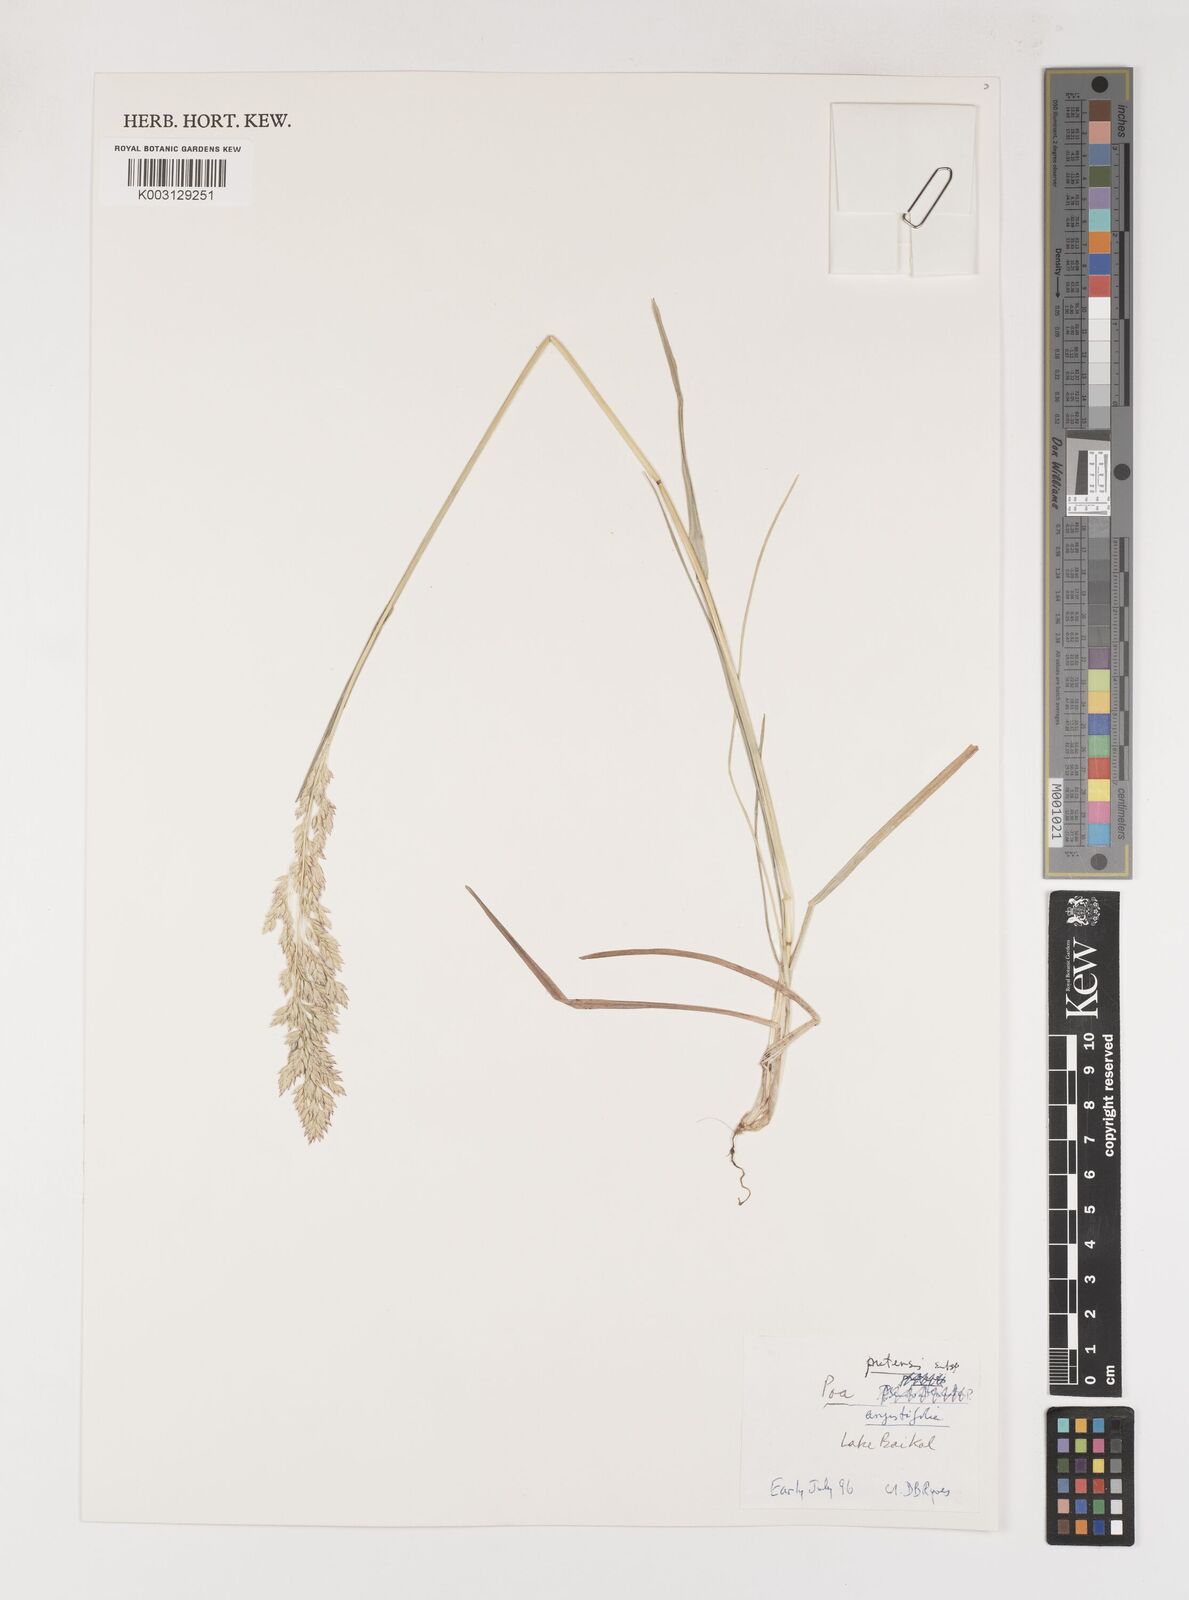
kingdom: Plantae
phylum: Tracheophyta
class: Liliopsida
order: Poales
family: Poaceae
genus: Poa
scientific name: Poa angustifolia
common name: Narrow-leaved meadow-grass
